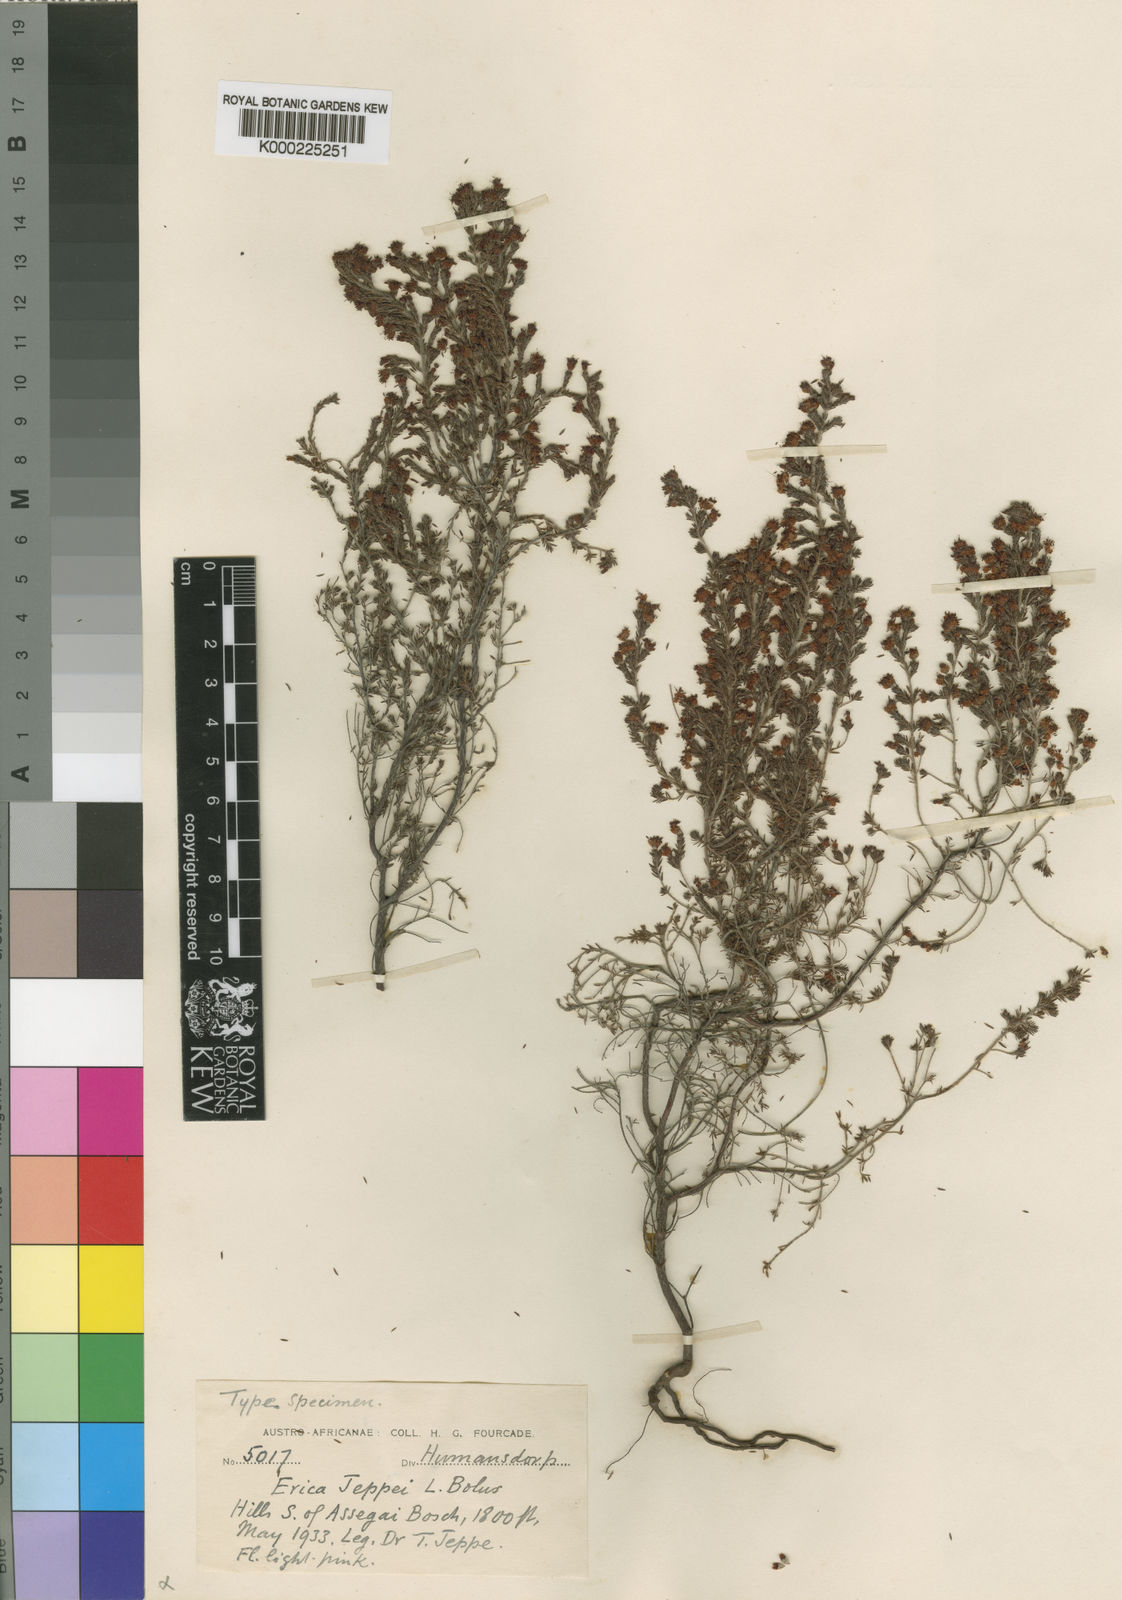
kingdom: Plantae
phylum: Tracheophyta
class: Magnoliopsida
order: Ericales
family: Ericaceae
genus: Erica
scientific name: Erica harveyana
